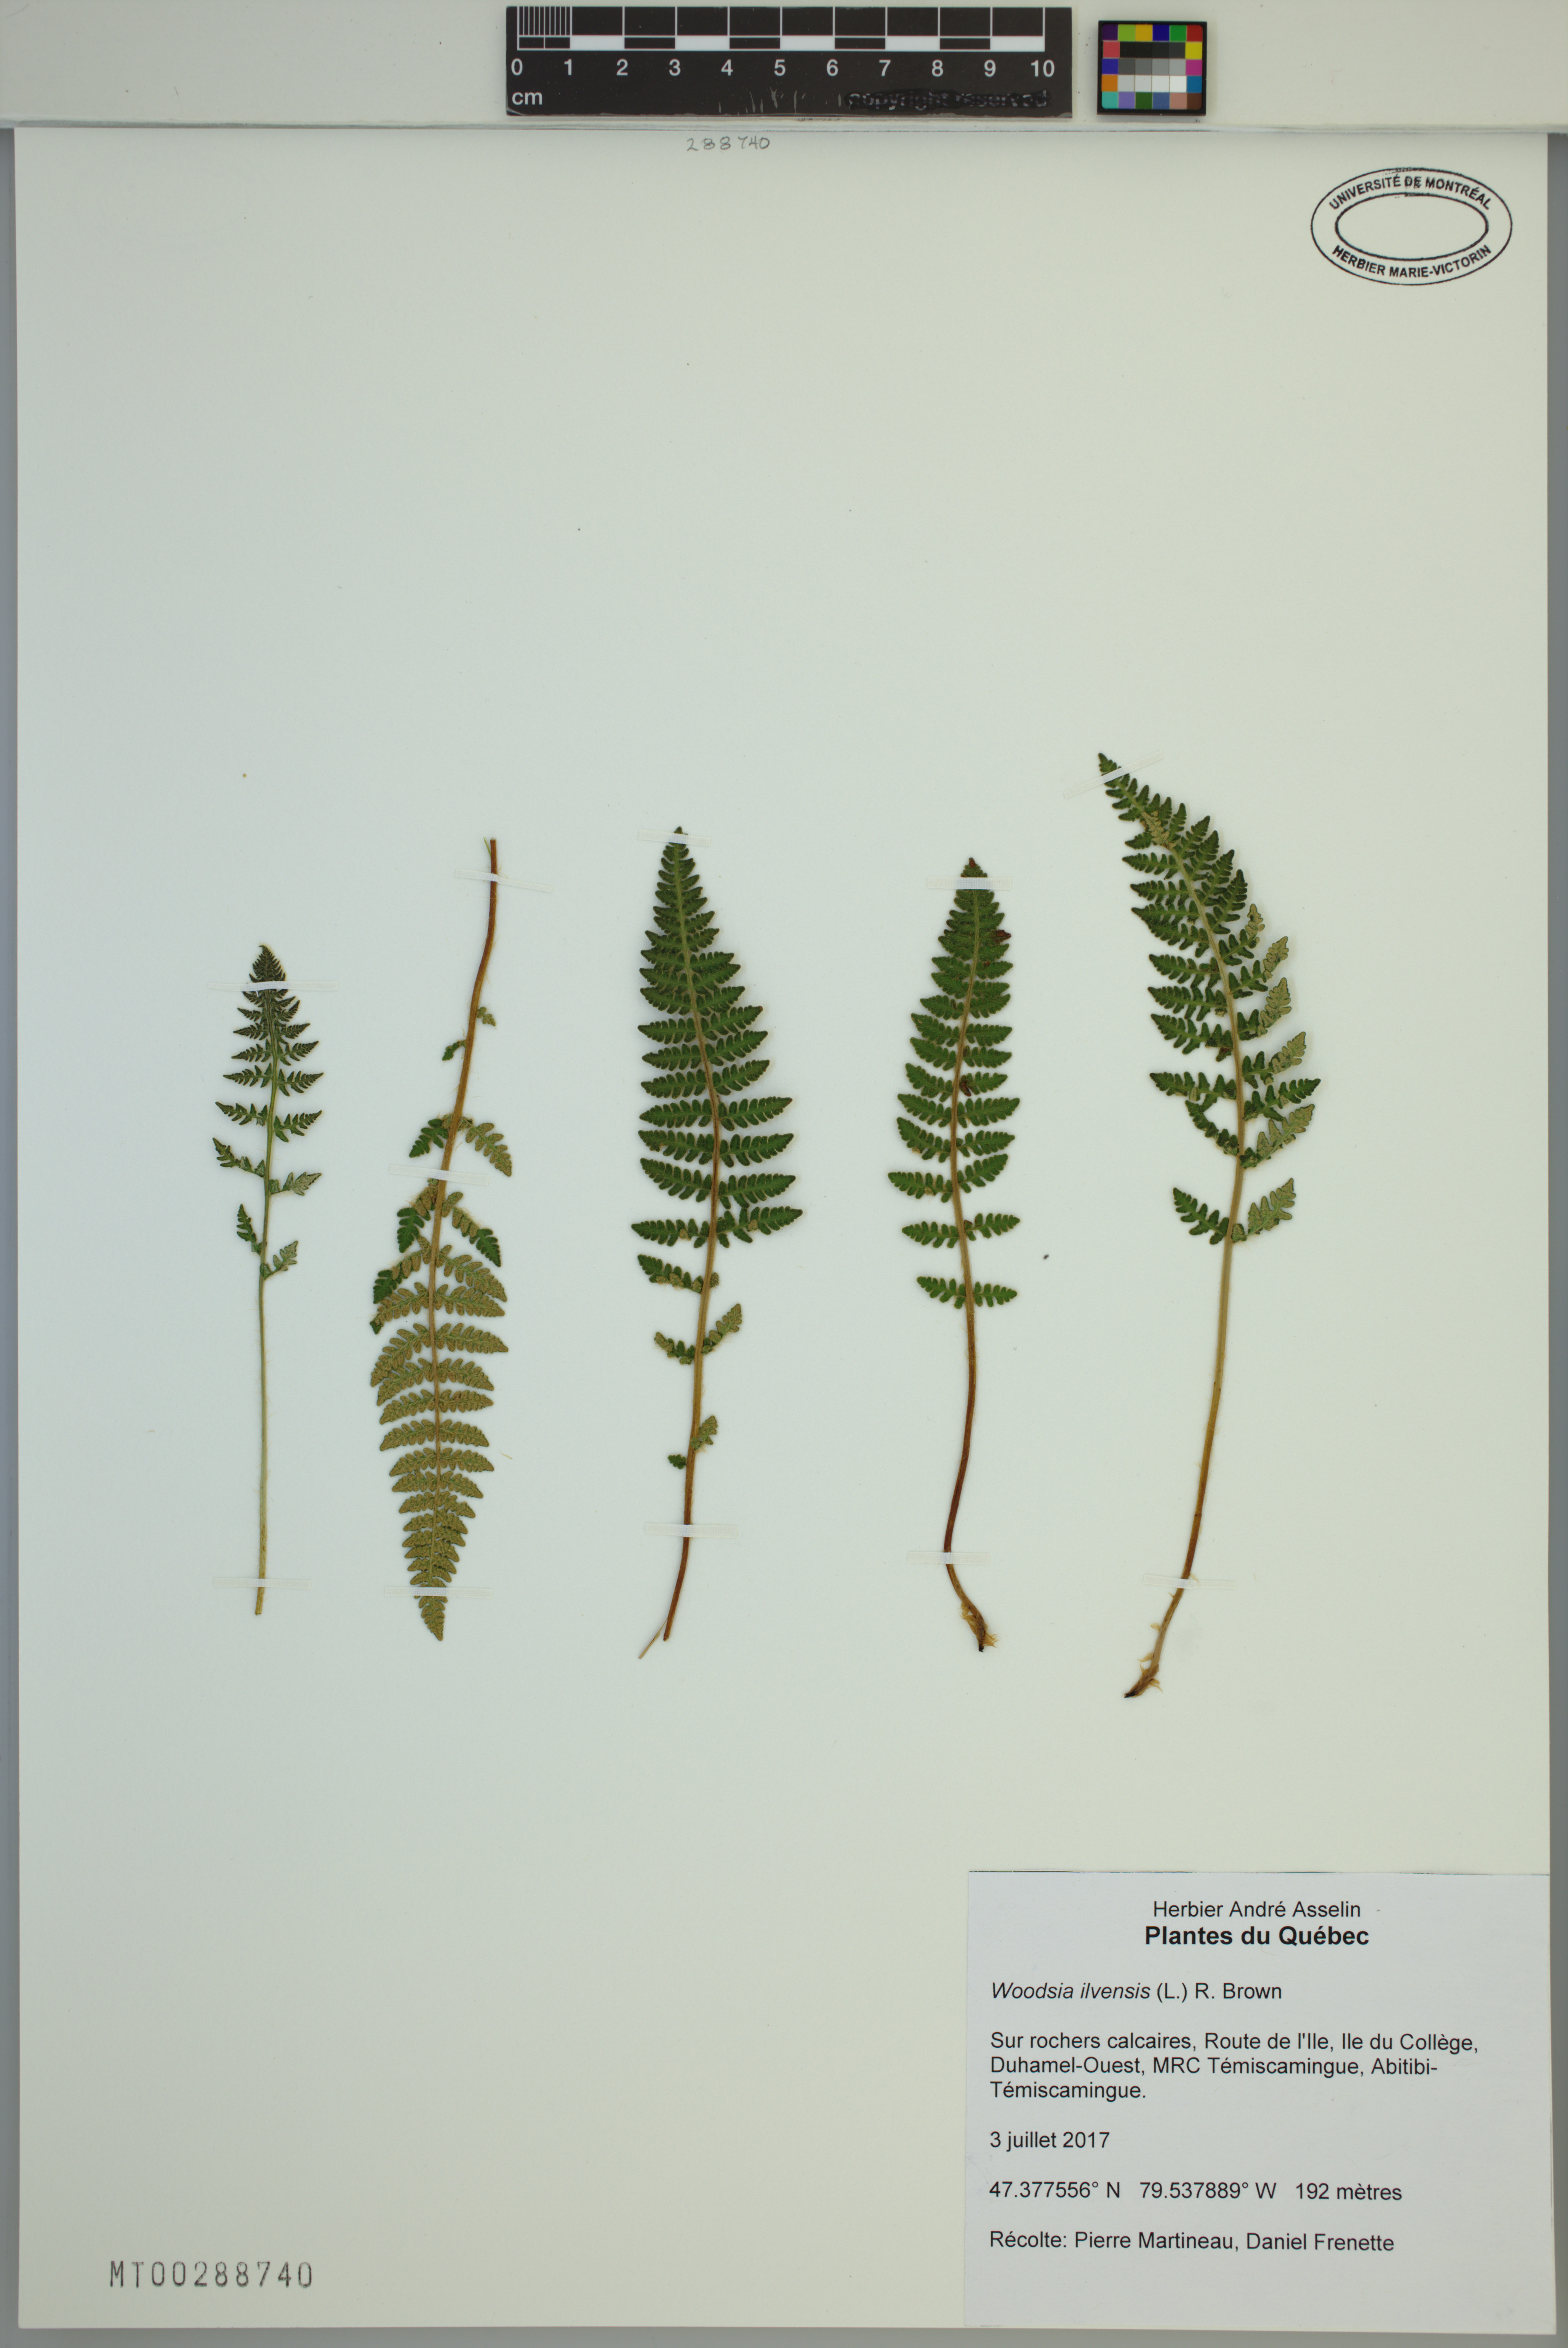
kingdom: Plantae
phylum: Tracheophyta
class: Polypodiopsida
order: Polypodiales
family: Woodsiaceae
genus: Woodsia
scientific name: Woodsia ilvensis
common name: Fragrant woodsia
